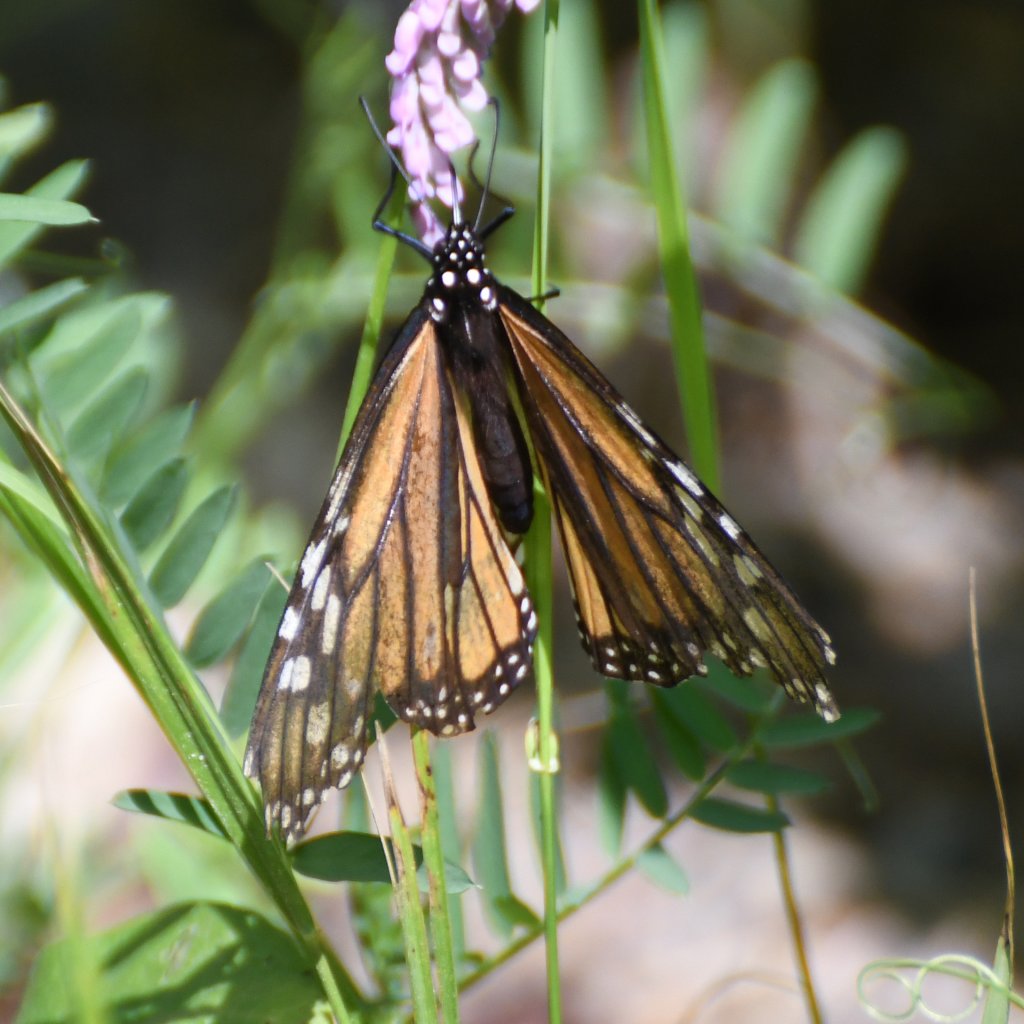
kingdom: Animalia
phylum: Arthropoda
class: Insecta
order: Lepidoptera
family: Nymphalidae
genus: Danaus
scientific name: Danaus plexippus
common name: Monarch
